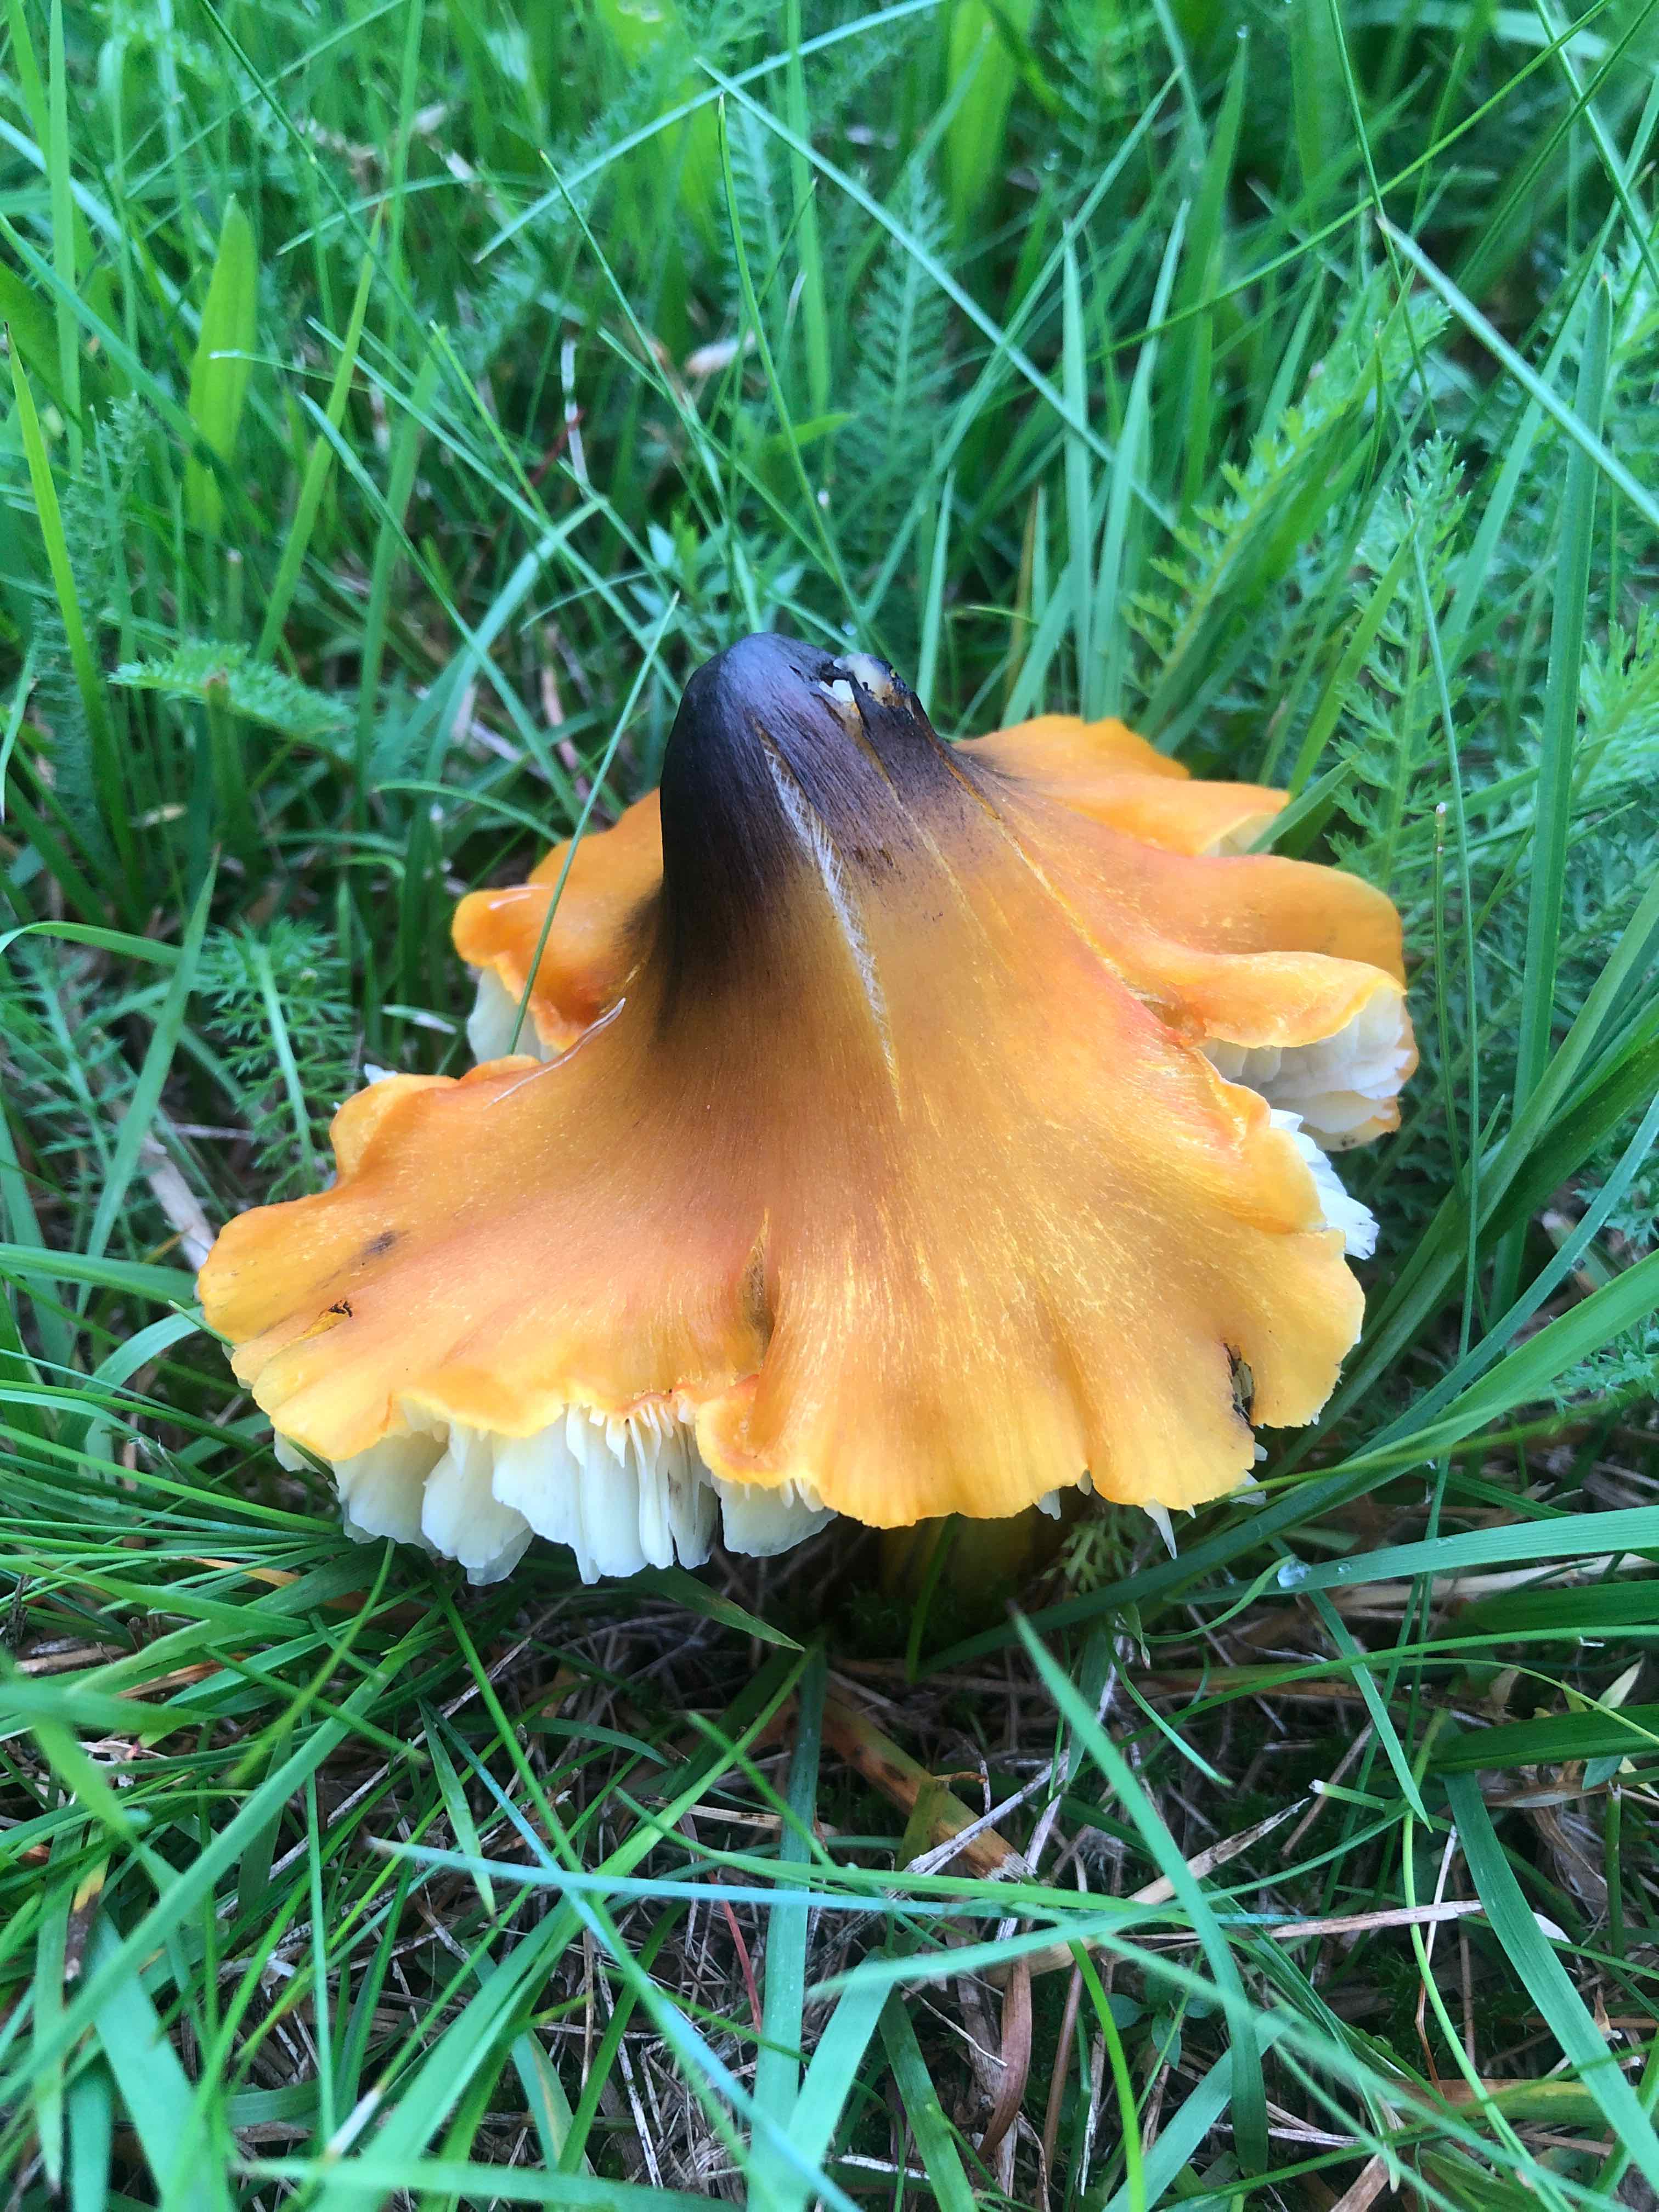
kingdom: Fungi
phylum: Basidiomycota
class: Agaricomycetes
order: Agaricales
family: Hygrophoraceae
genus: Hygrocybe
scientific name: Hygrocybe conica
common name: kegle-vokshat
